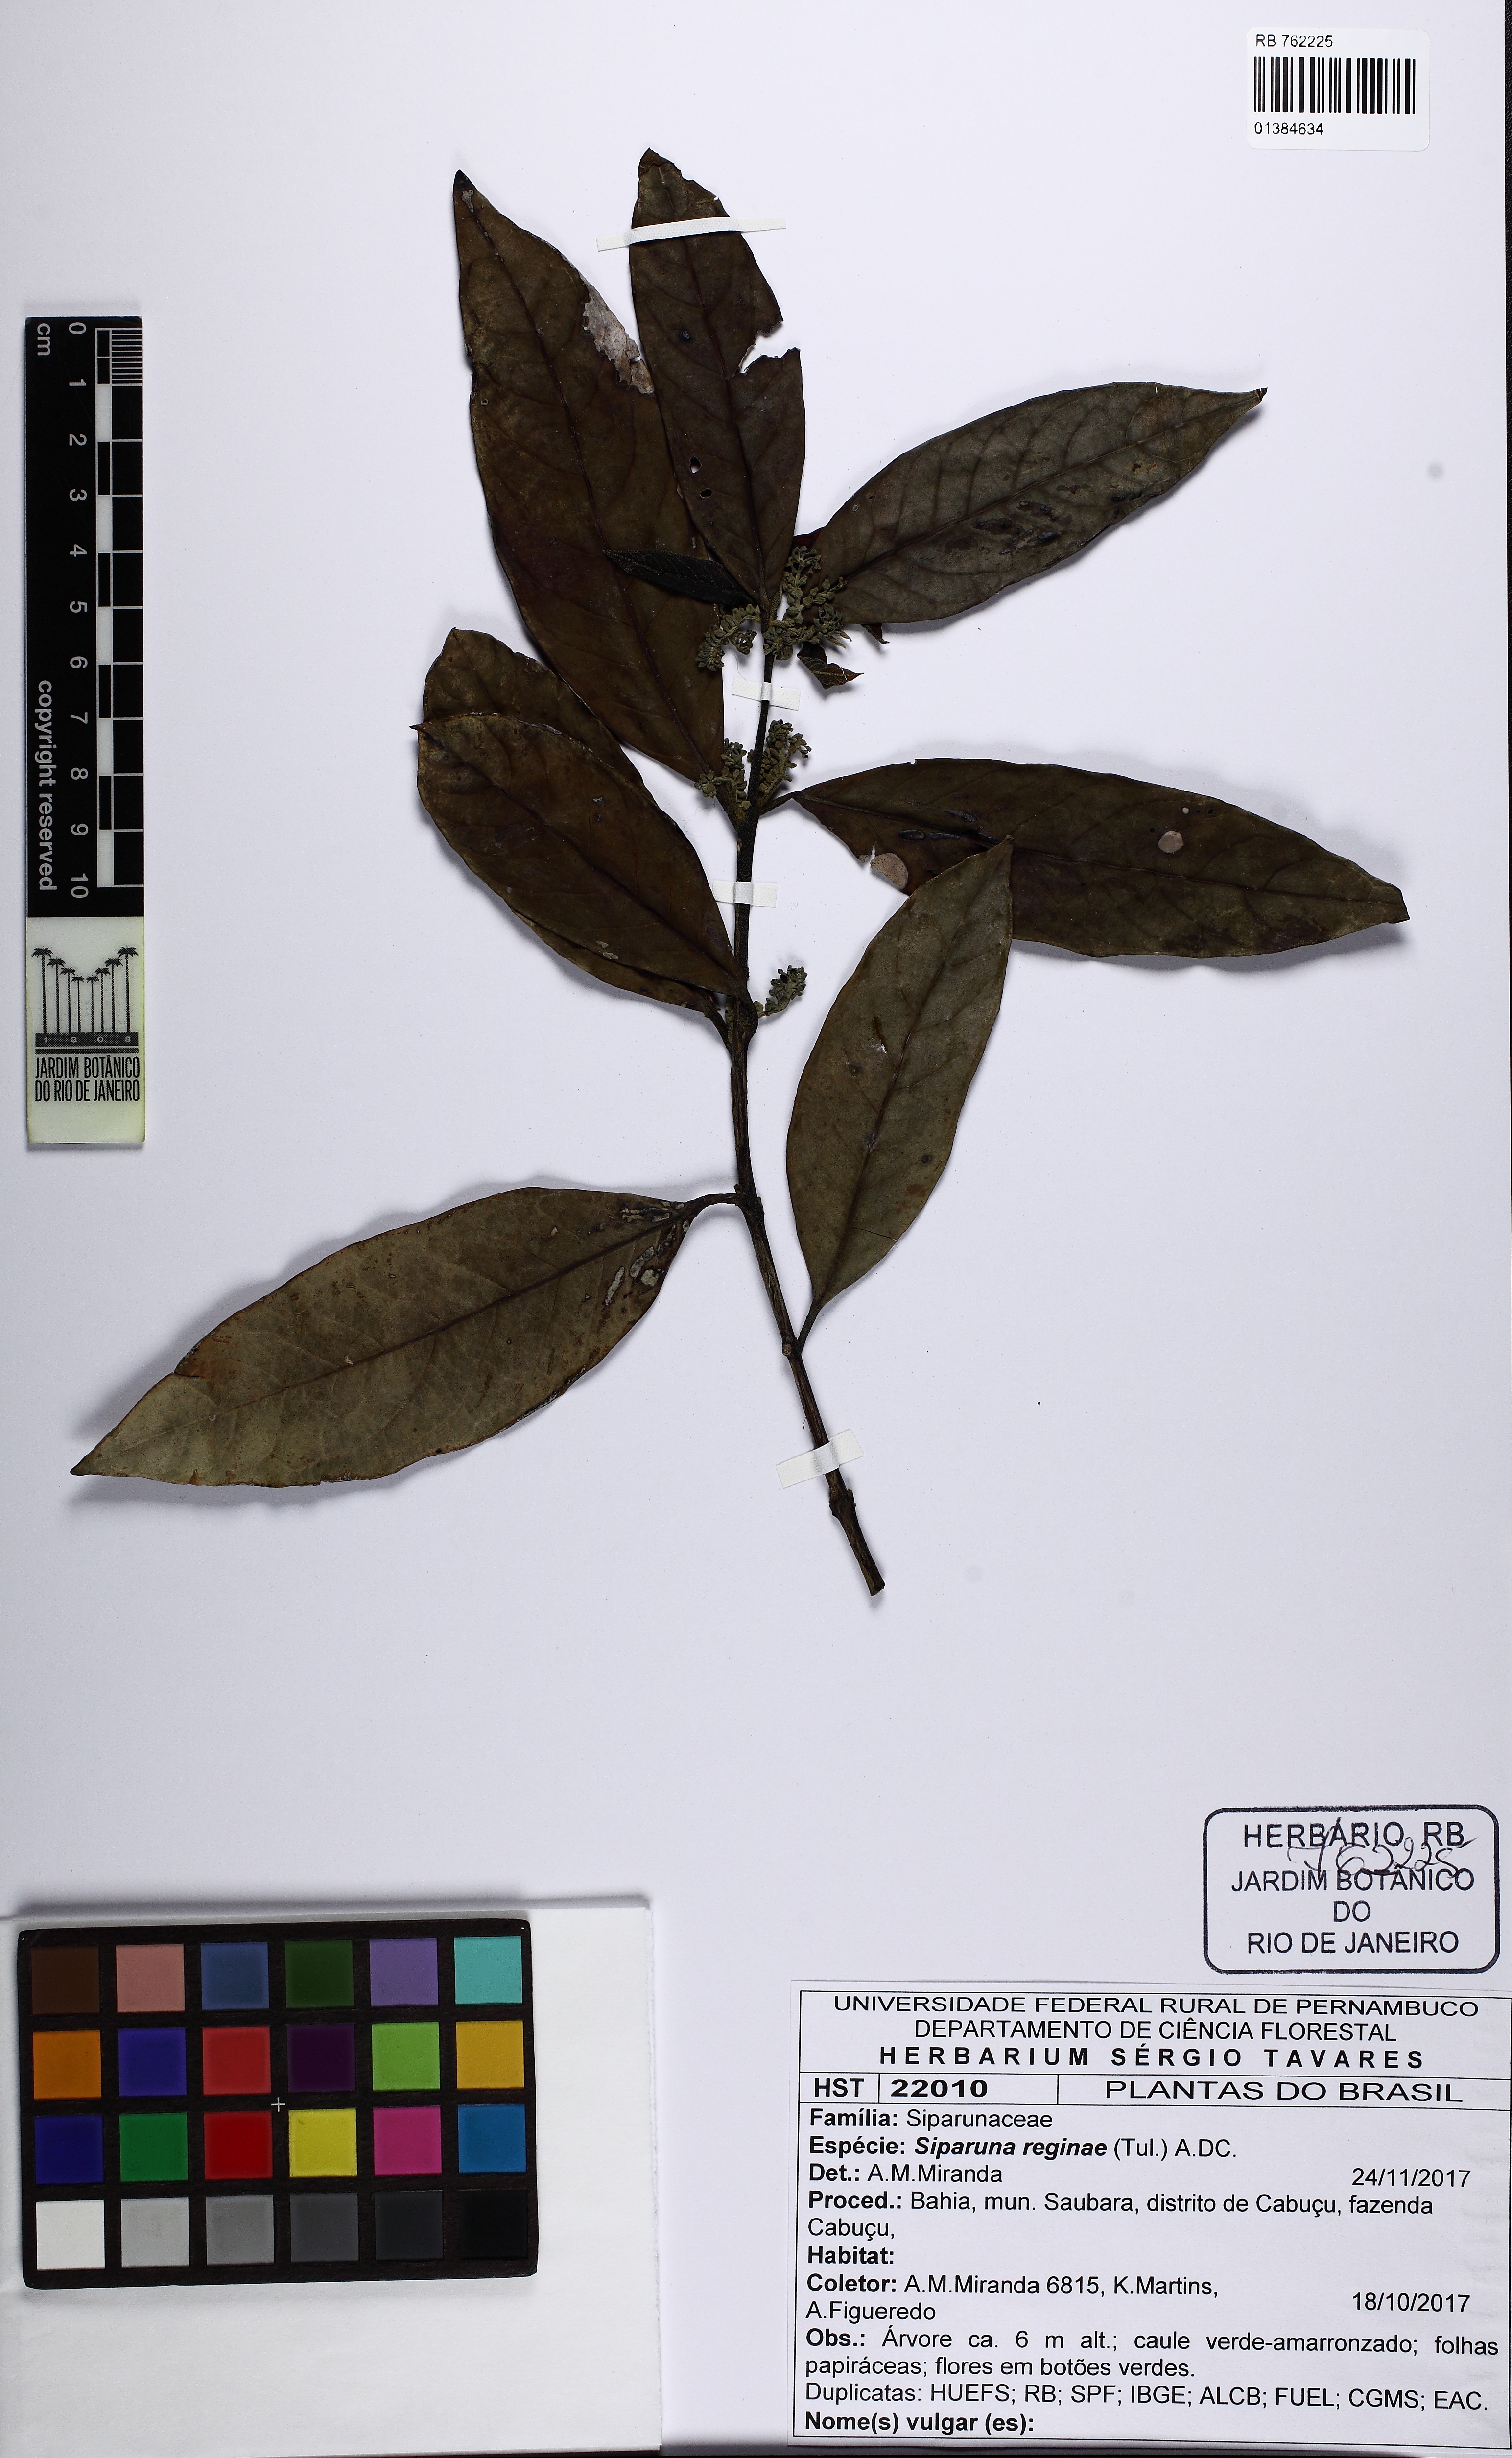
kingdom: Plantae
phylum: Tracheophyta
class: Magnoliopsida
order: Laurales
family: Siparunaceae
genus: Siparuna
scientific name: Siparuna reginae
